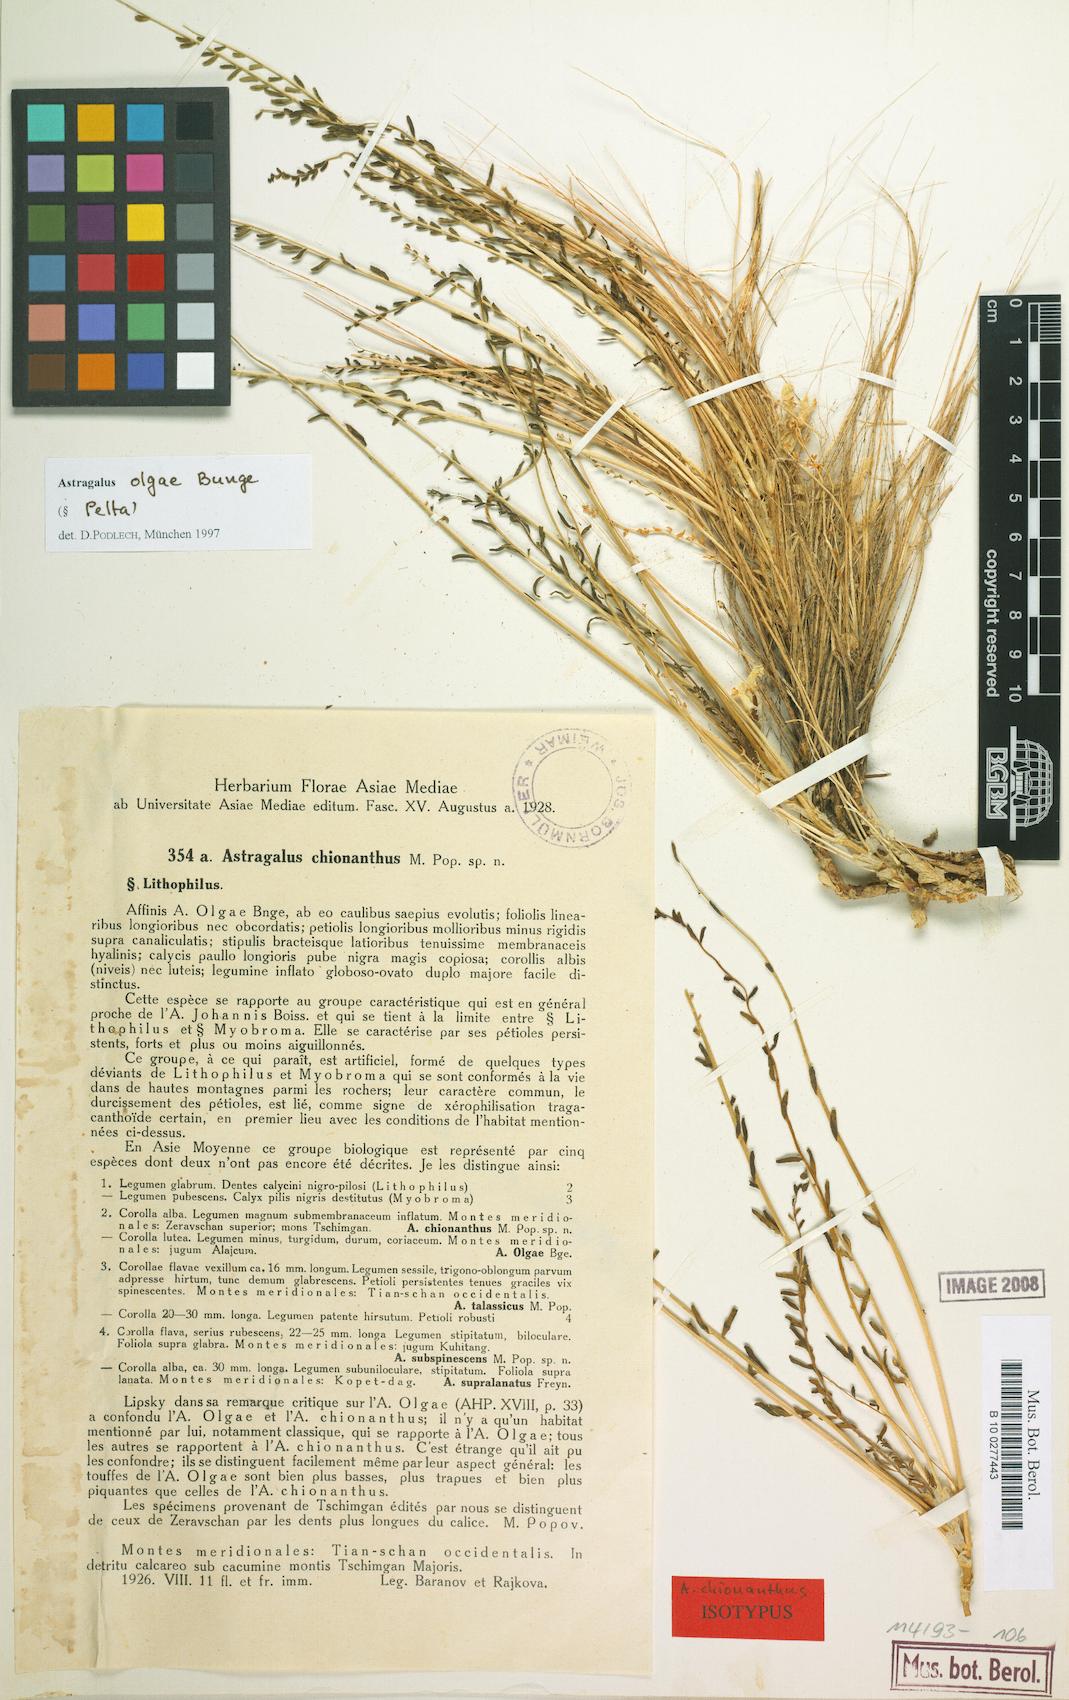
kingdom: Plantae
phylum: Tracheophyta
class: Magnoliopsida
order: Fabales
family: Fabaceae
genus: Astragalus
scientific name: Astragalus olgae
